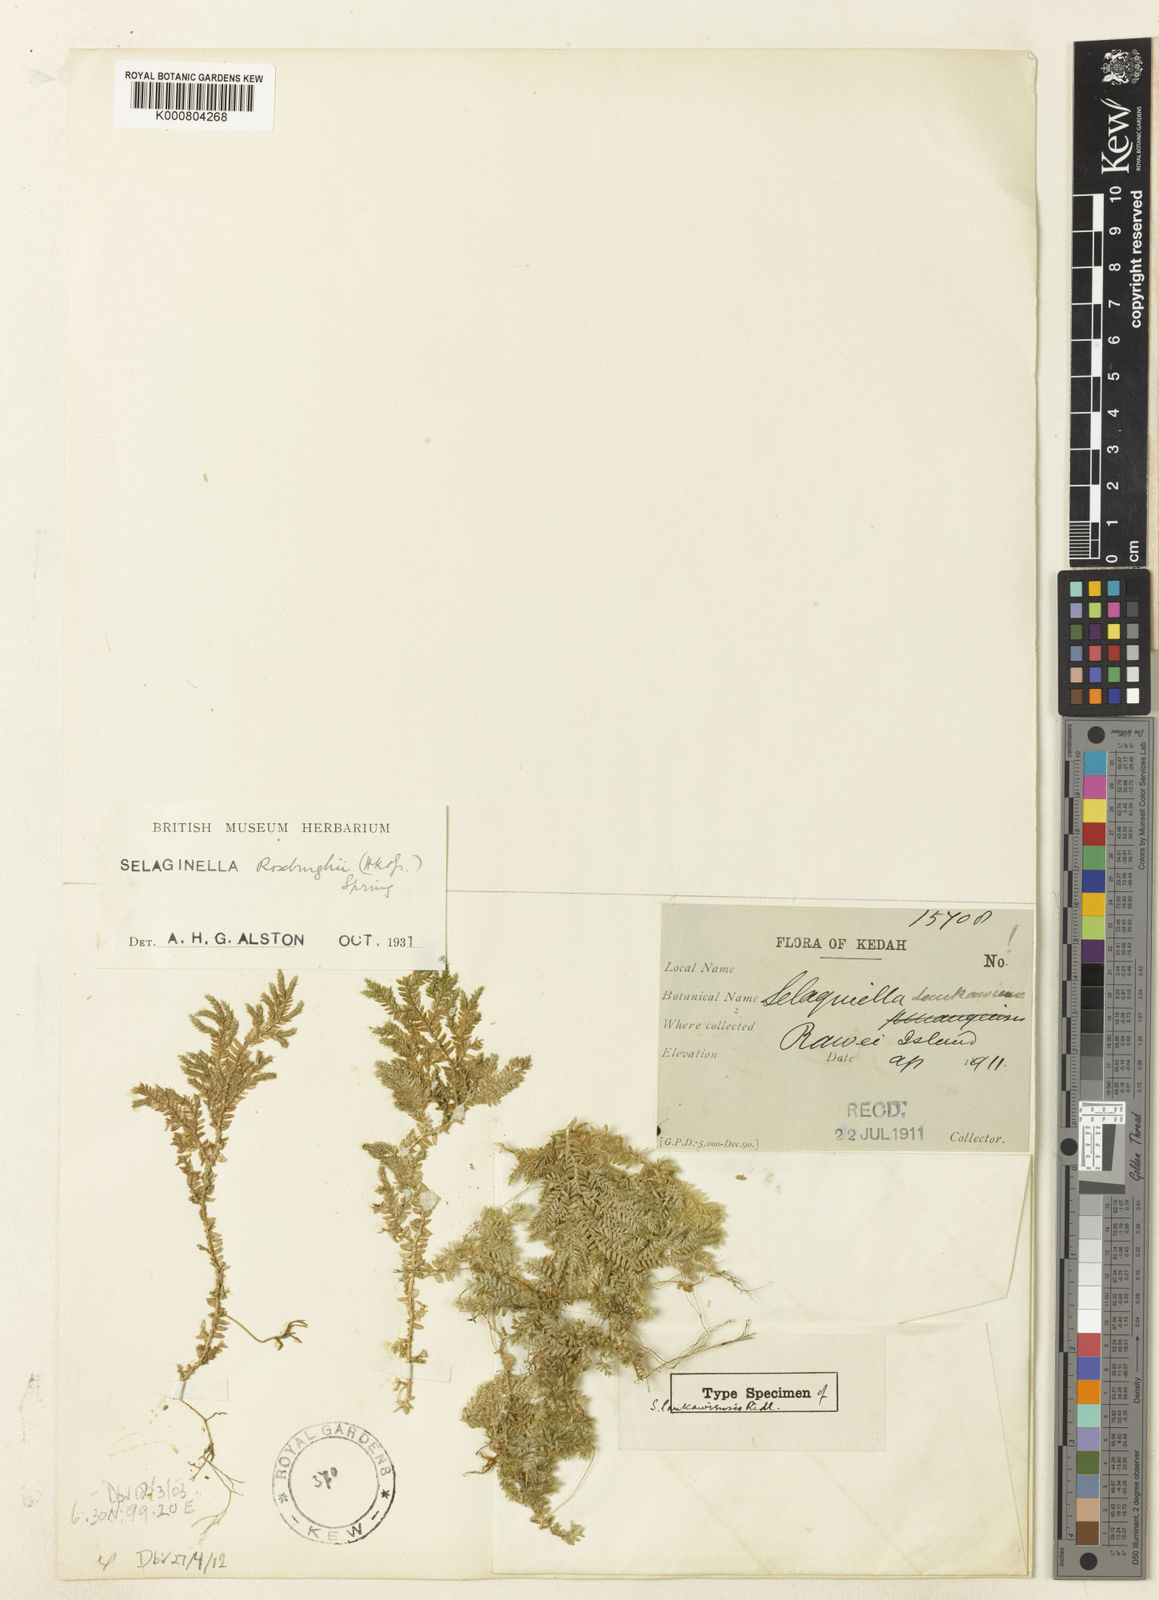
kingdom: Plantae
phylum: Tracheophyta
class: Lycopodiopsida
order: Selaginellales
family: Selaginellaceae
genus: Selaginella
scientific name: Selaginella roxburghii
